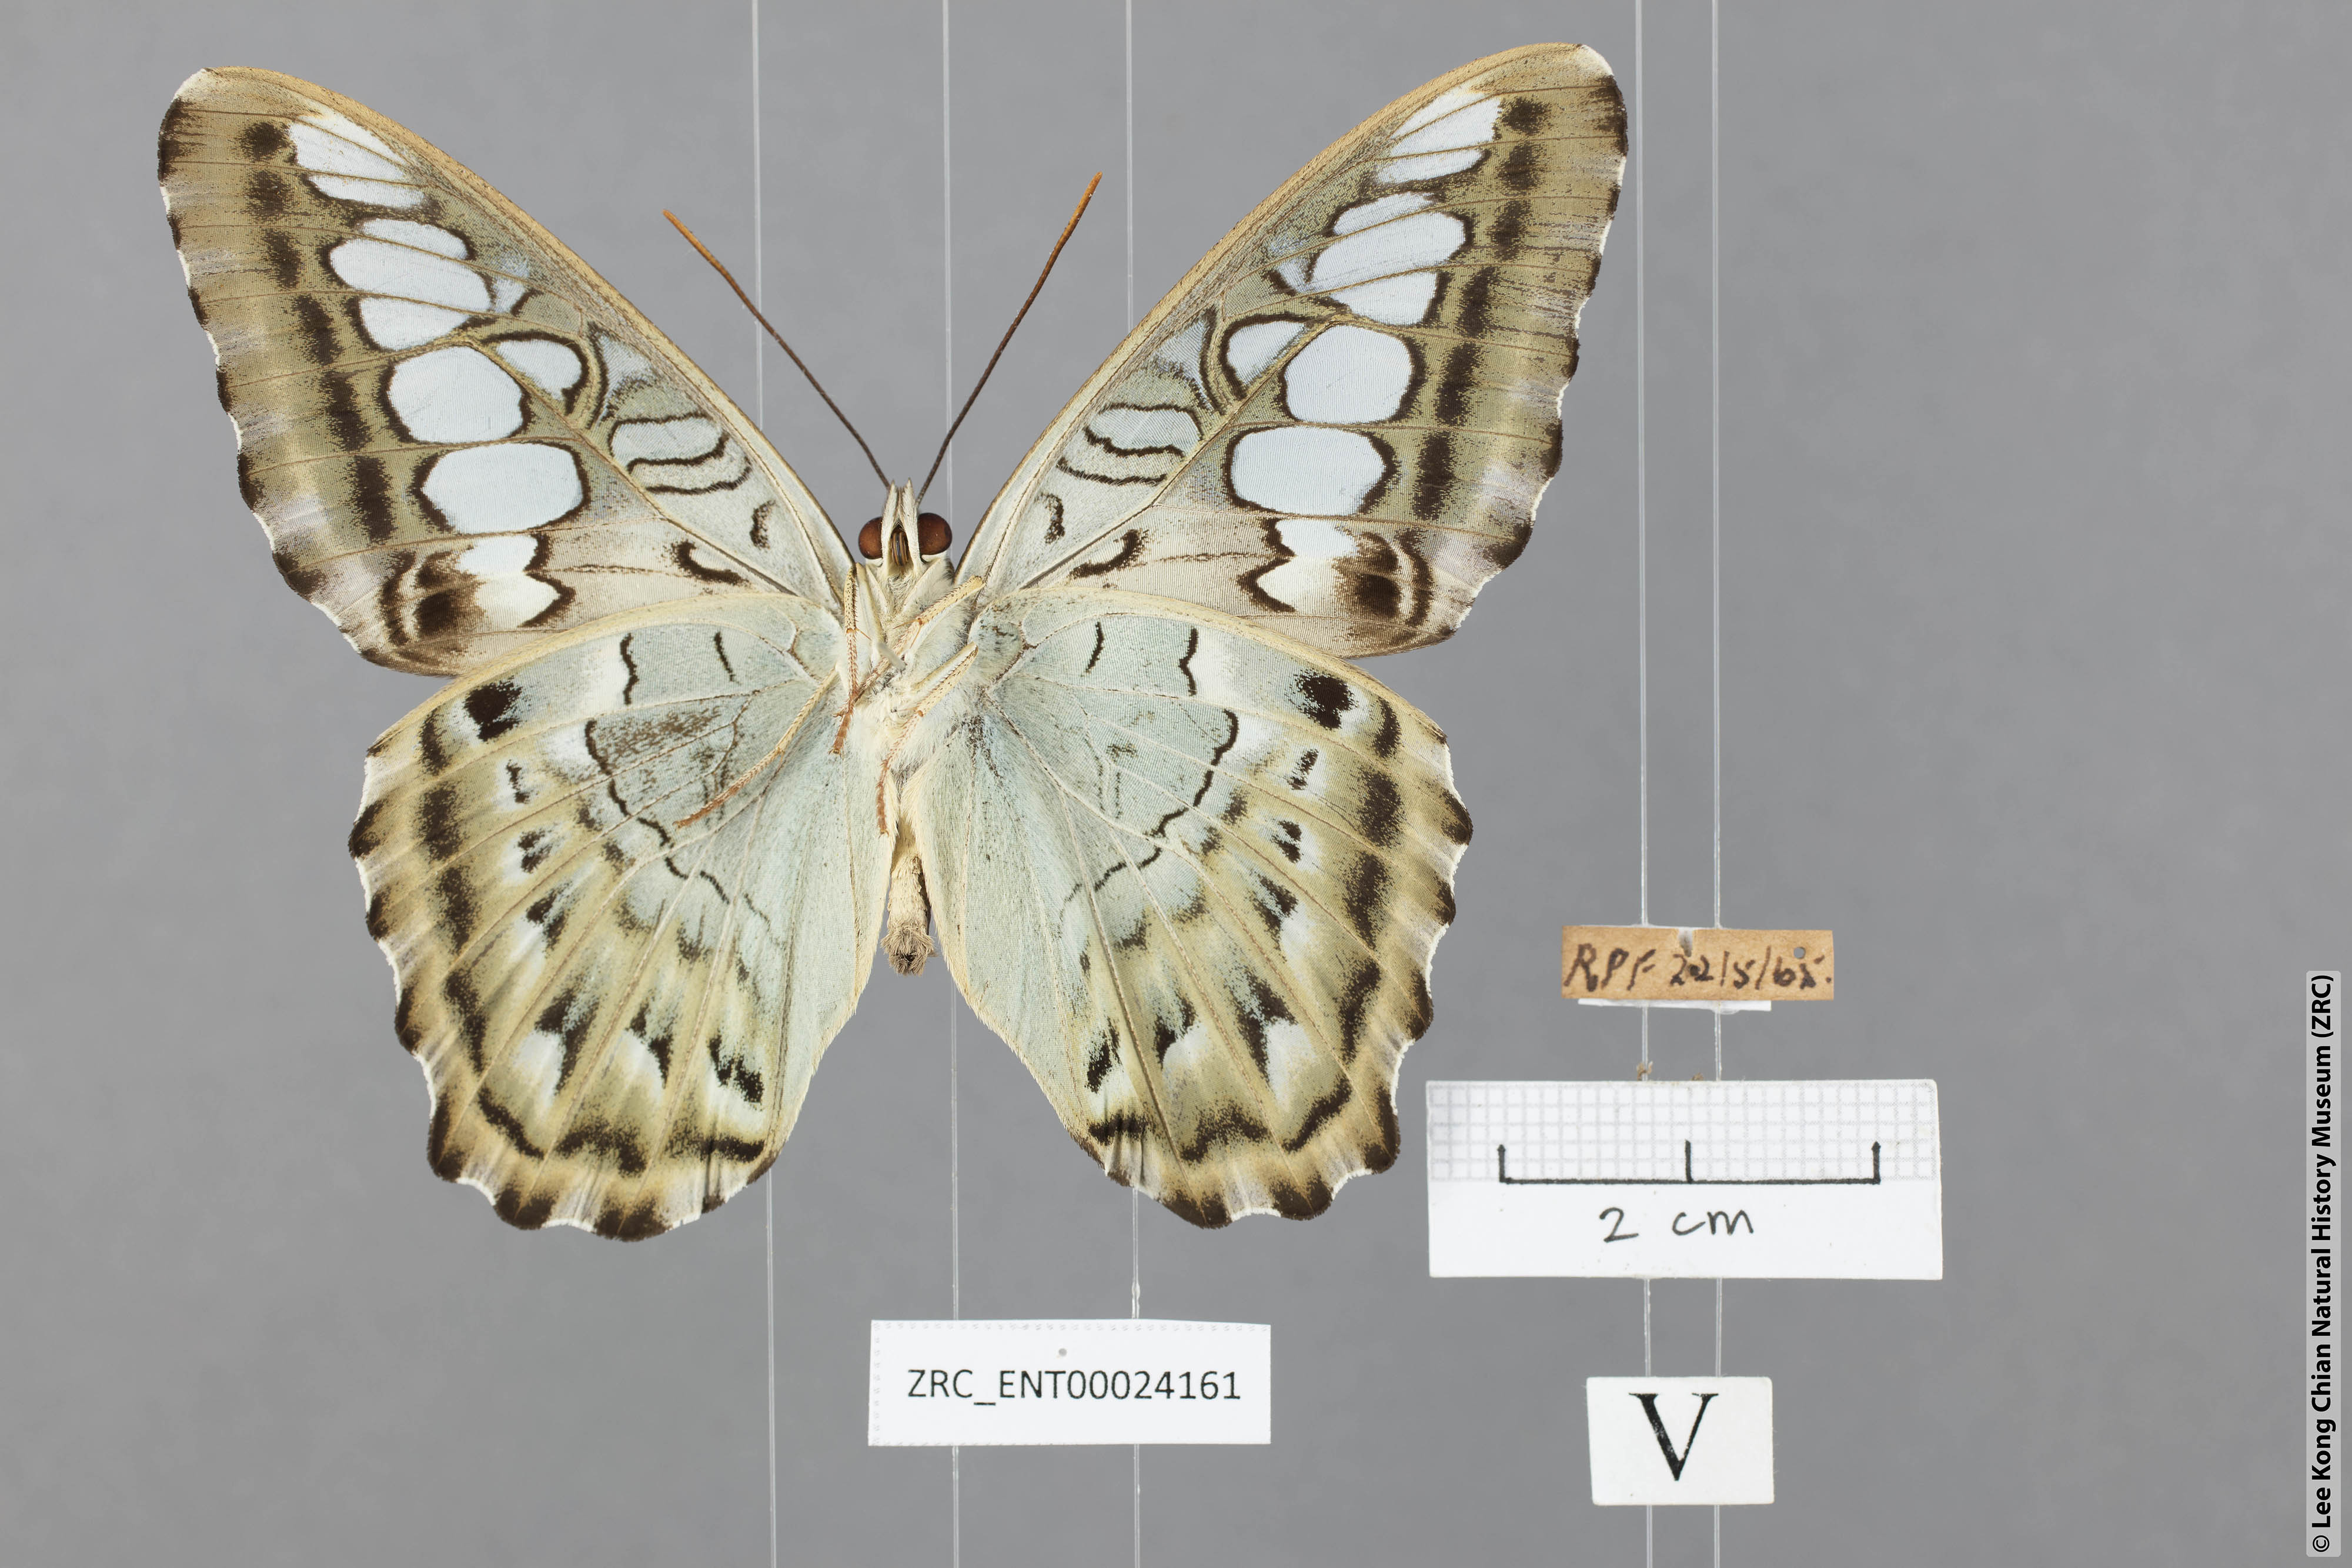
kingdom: Animalia
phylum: Arthropoda
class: Insecta
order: Lepidoptera
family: Nymphalidae
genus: Kallima
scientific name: Kallima sylvia
